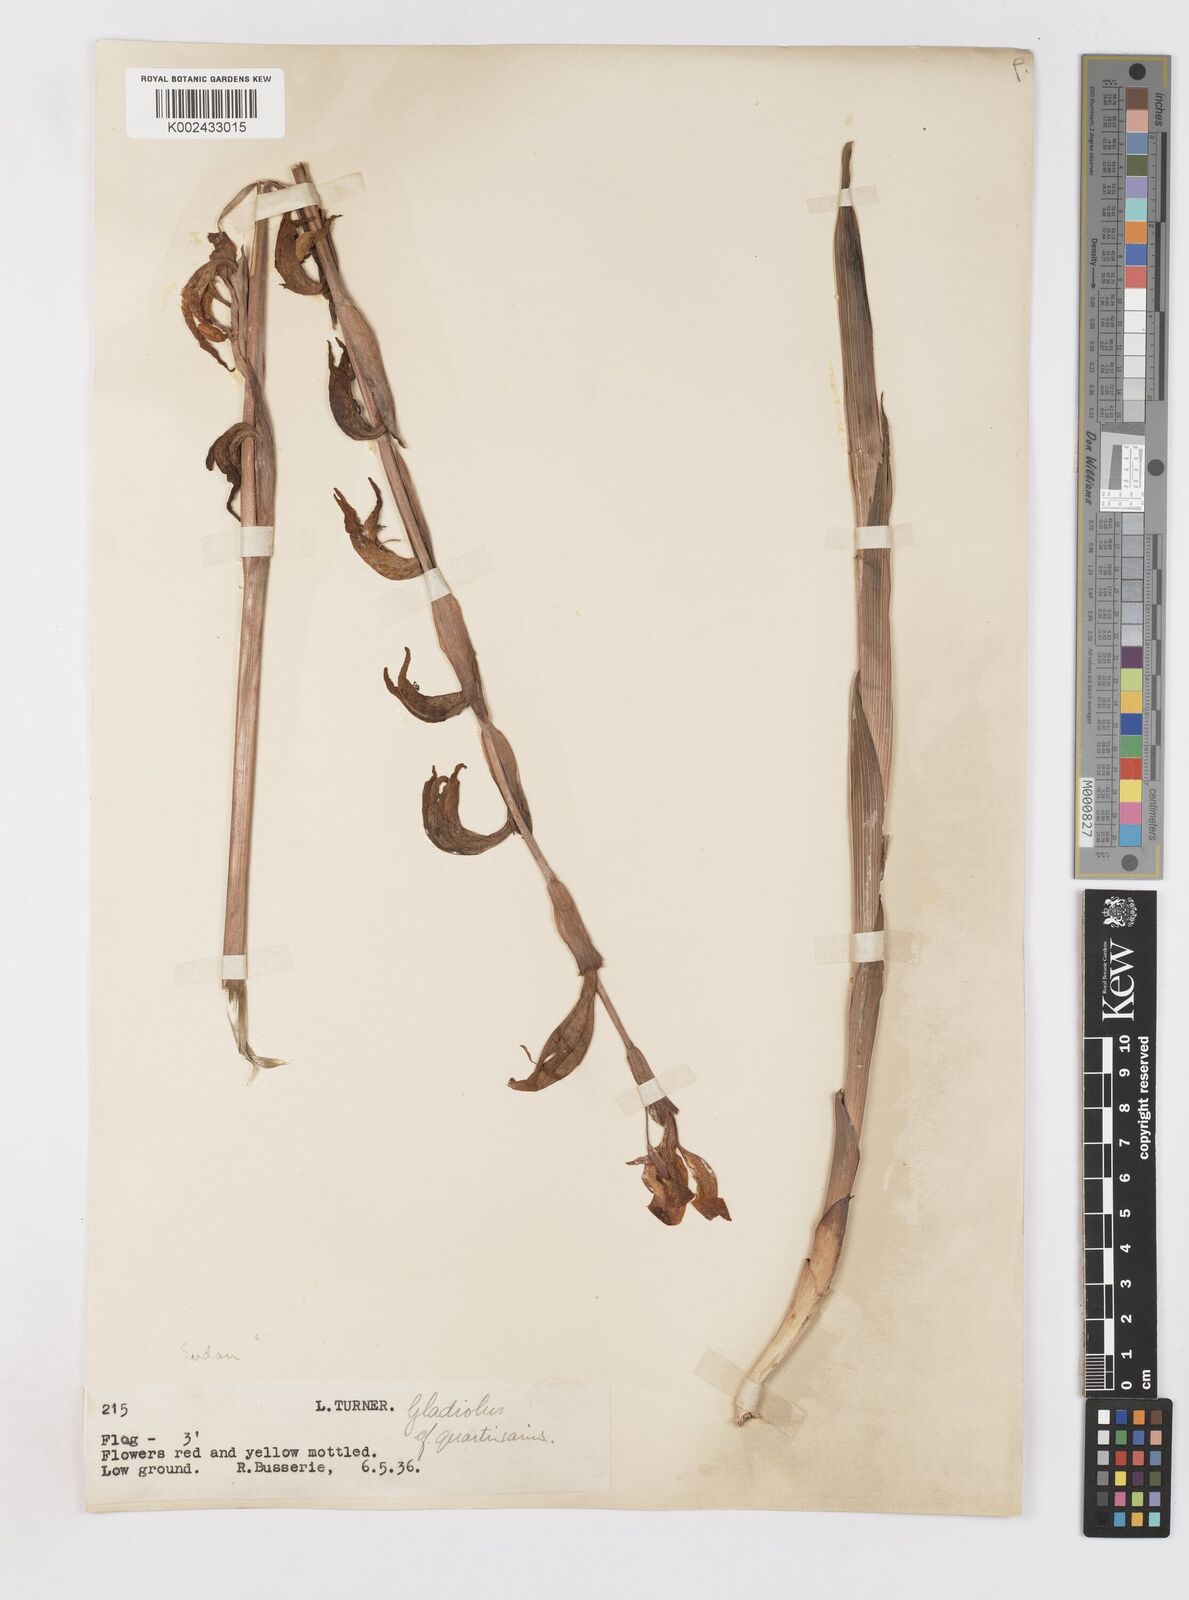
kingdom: Plantae
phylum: Tracheophyta
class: Liliopsida
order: Asparagales
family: Iridaceae
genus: Gladiolus
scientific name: Gladiolus dalenii
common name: Cornflag
